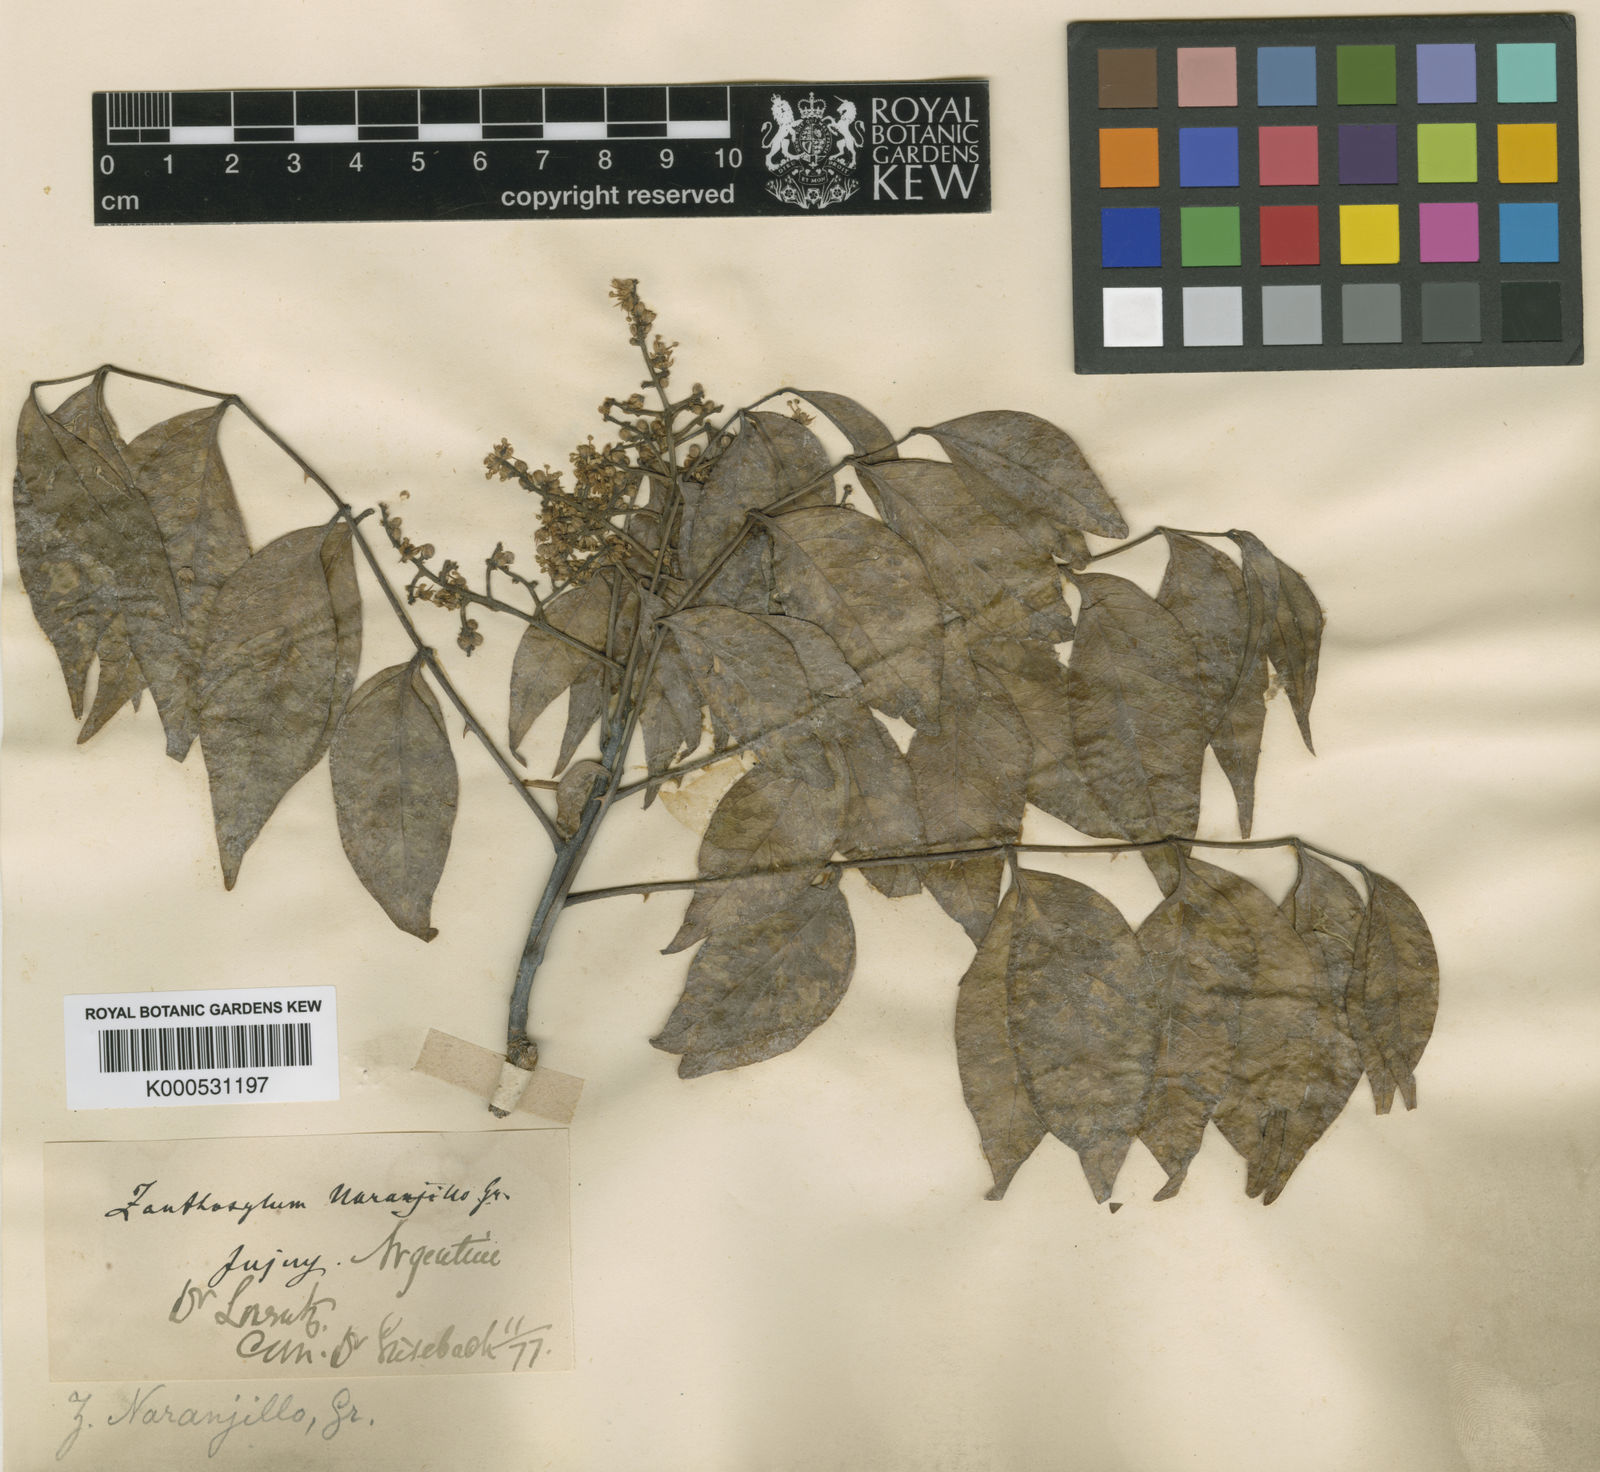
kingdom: Plantae
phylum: Tracheophyta
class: Magnoliopsida
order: Sapindales
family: Rutaceae
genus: Zanthoxylum
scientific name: Zanthoxylum petiolare
